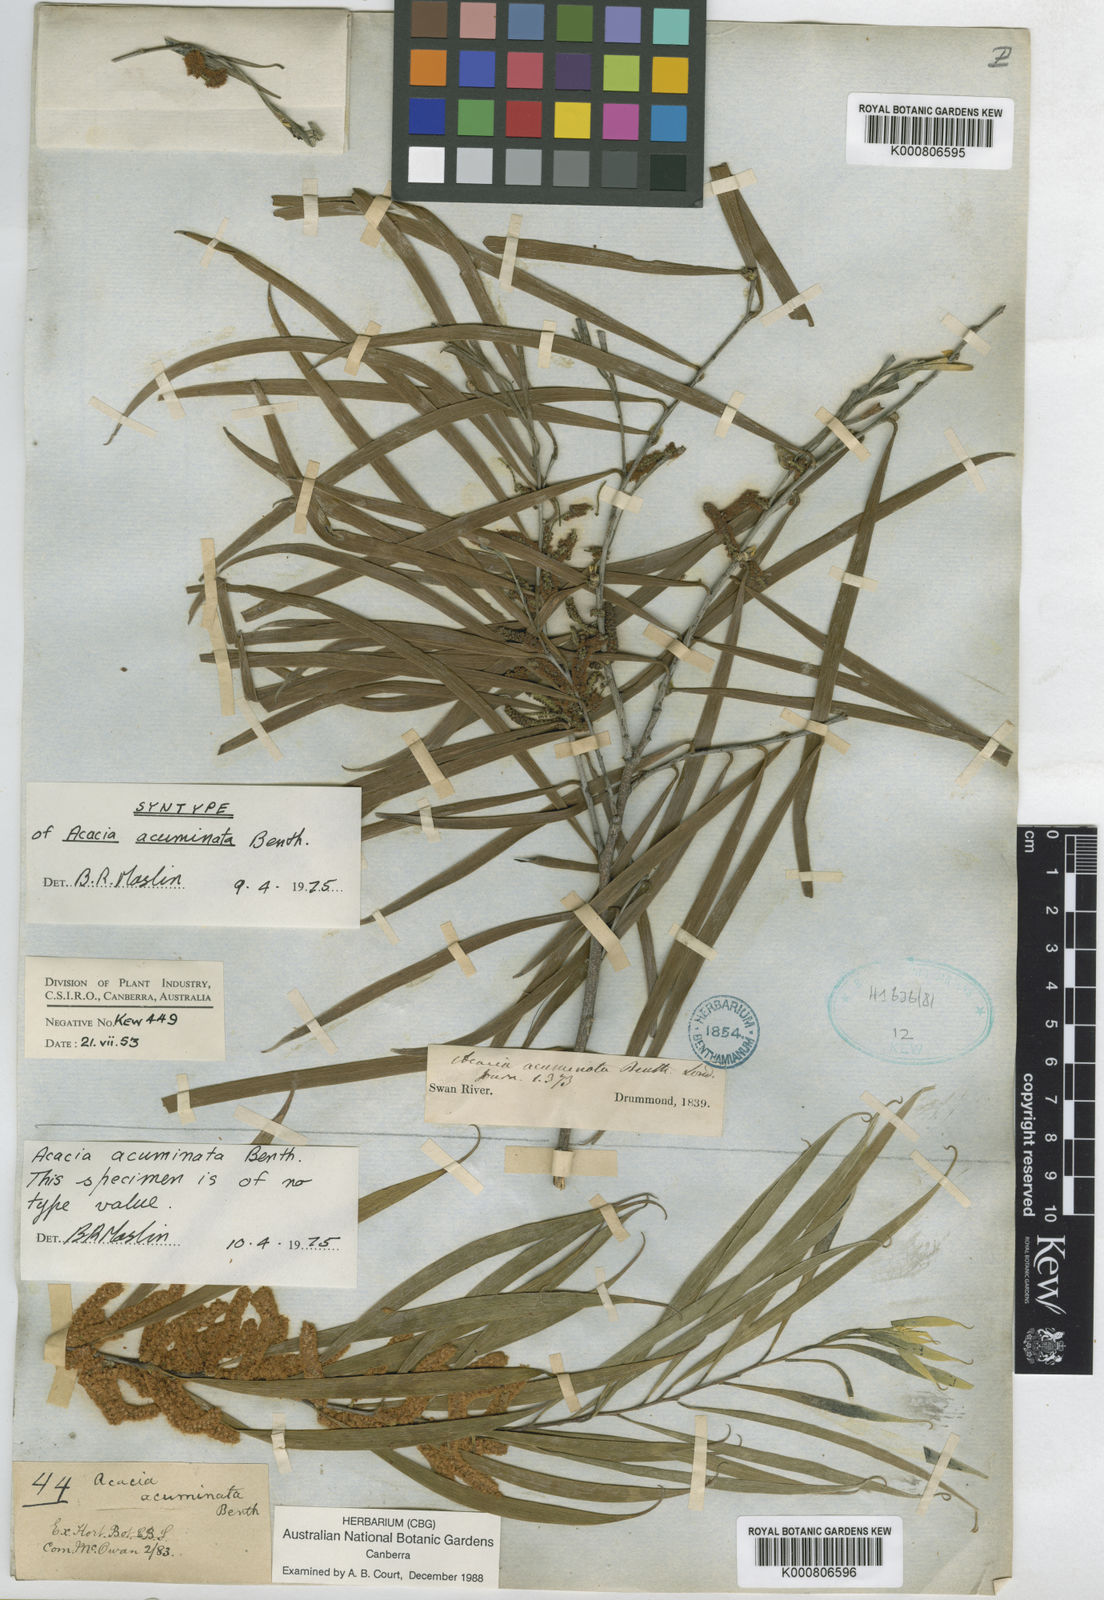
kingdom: Plantae
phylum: Tracheophyta
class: Magnoliopsida
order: Fabales
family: Fabaceae
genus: Acacia
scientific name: Acacia acuminata
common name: Jam wattle
